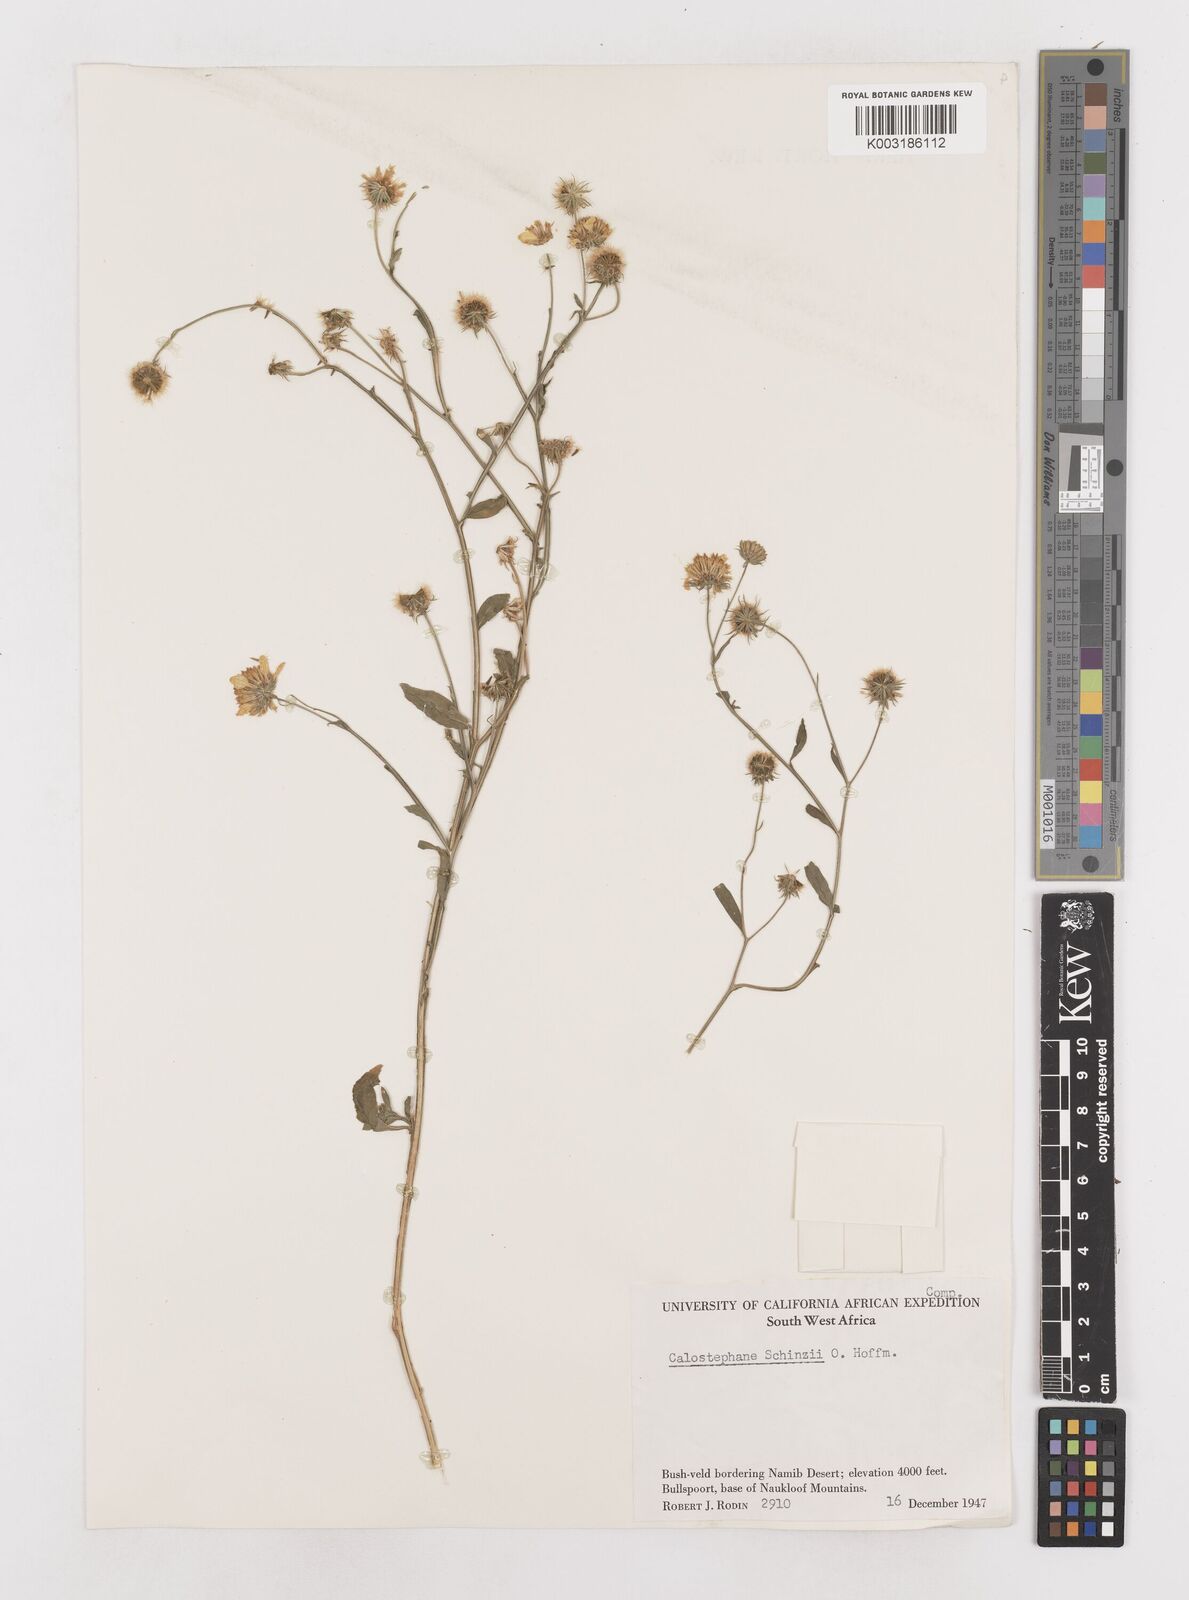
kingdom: Plantae
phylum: Tracheophyta
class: Magnoliopsida
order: Asterales
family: Asteraceae
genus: Calostephane
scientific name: Calostephane divaricata
